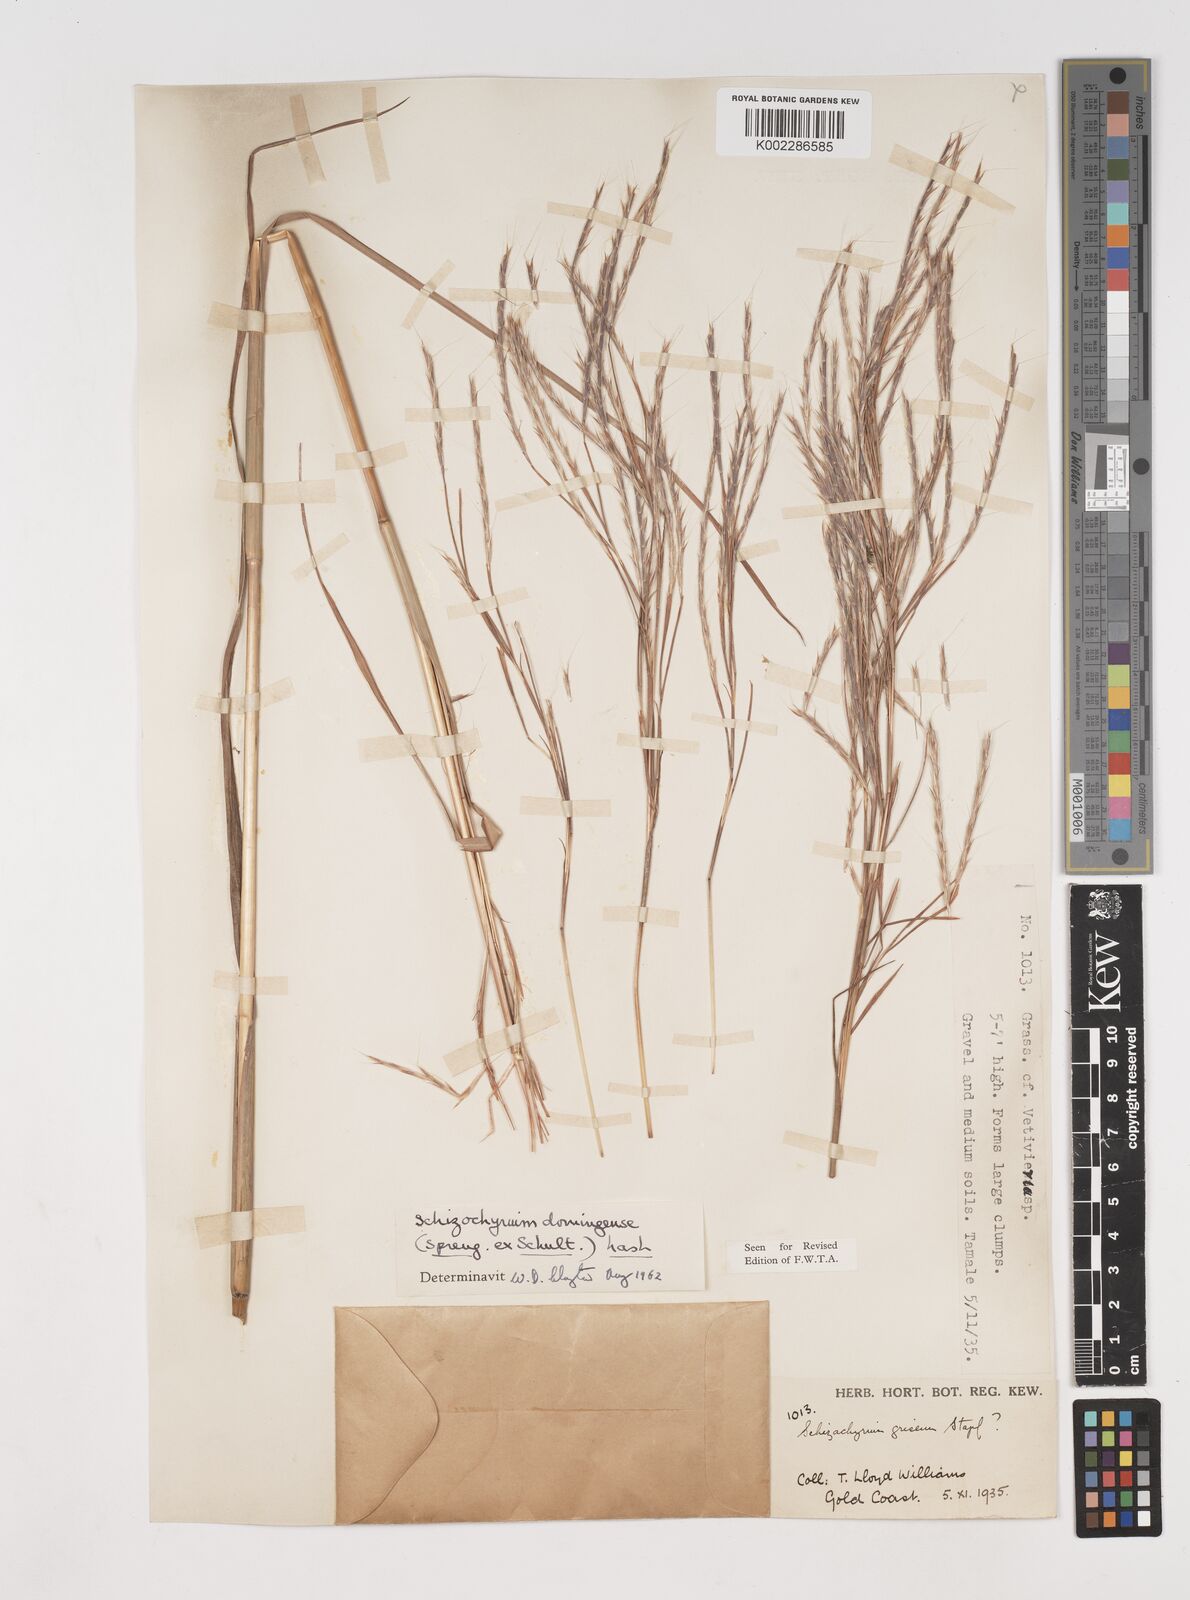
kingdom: Plantae
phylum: Tracheophyta
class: Liliopsida
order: Poales
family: Poaceae
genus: Schizachyrium
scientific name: Schizachyrium sanguineum
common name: Crimson bluestem
